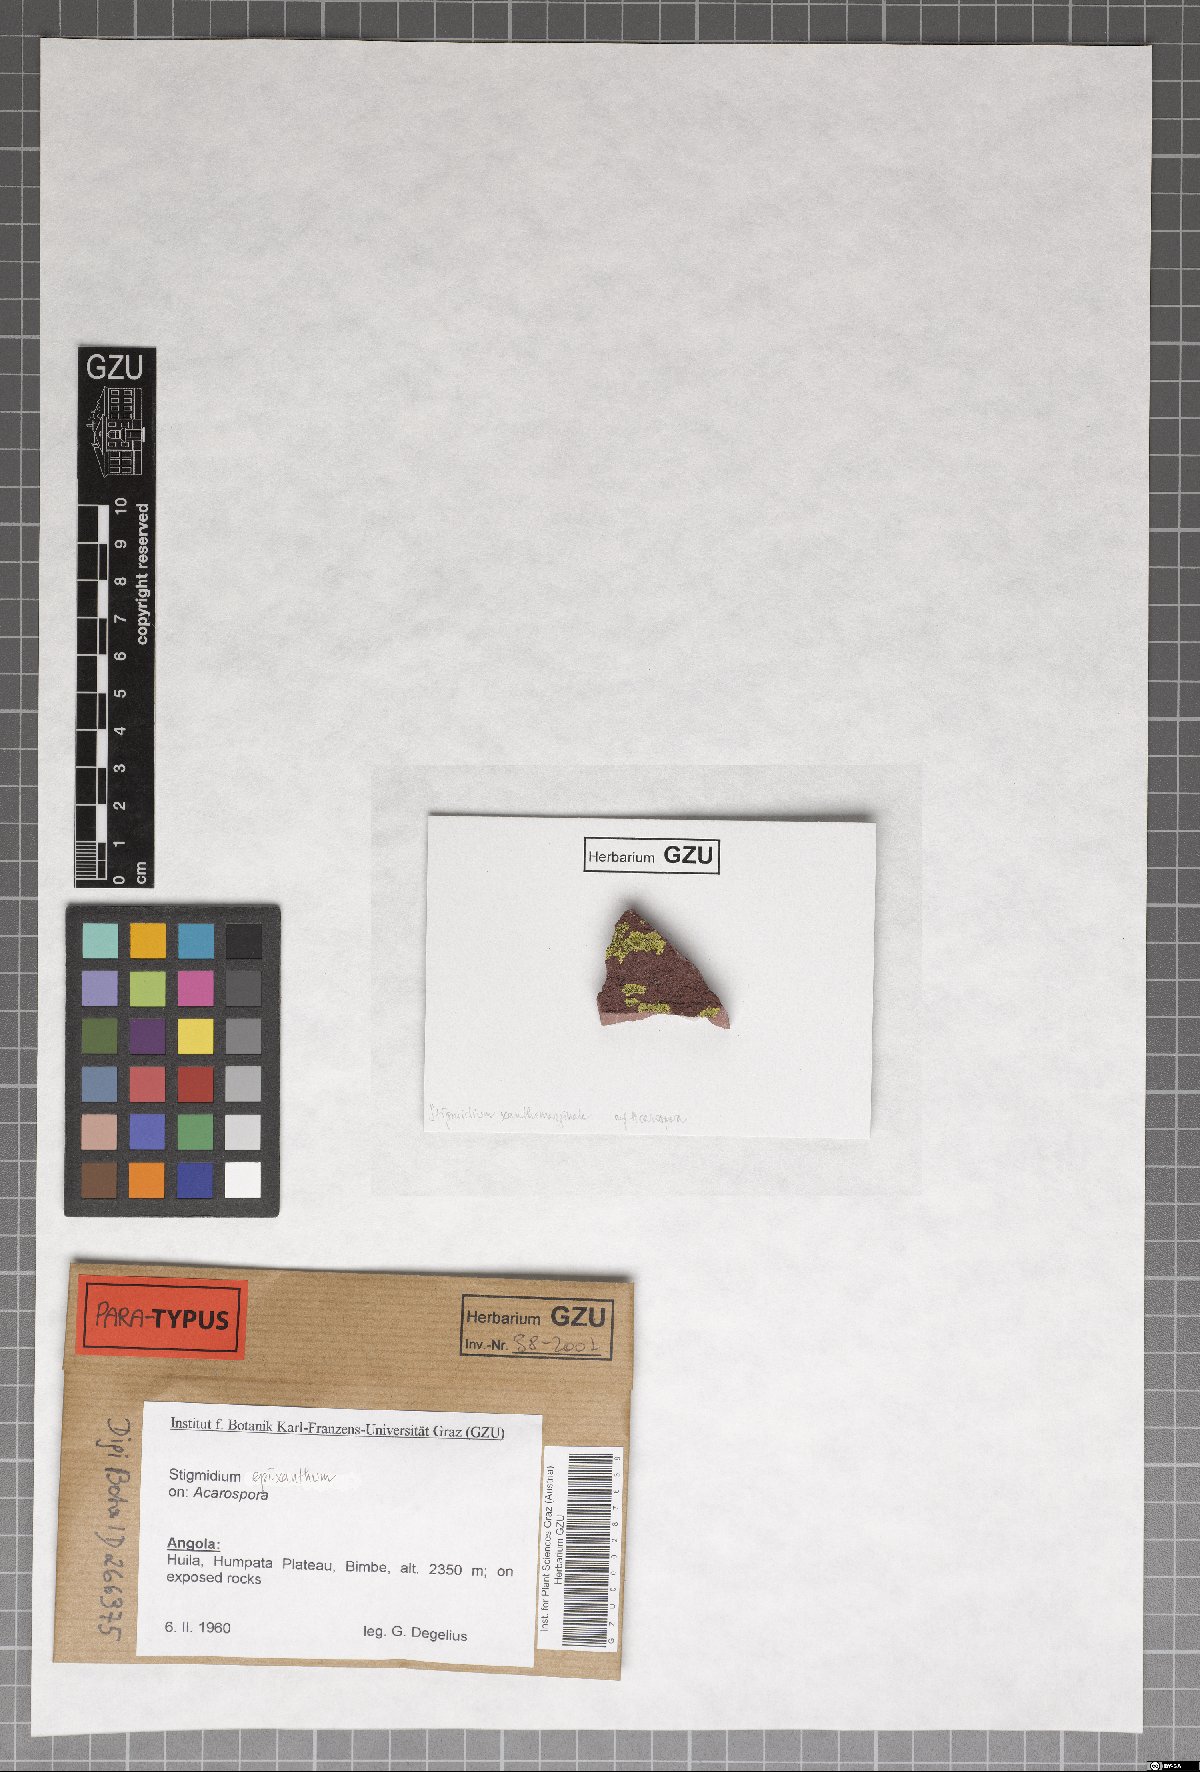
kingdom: Fungi
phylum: Ascomycota
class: Dothideomycetes
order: Mycosphaerellales
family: Mycosphaerellaceae
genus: Stigmidium
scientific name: Stigmidium epixanthum
